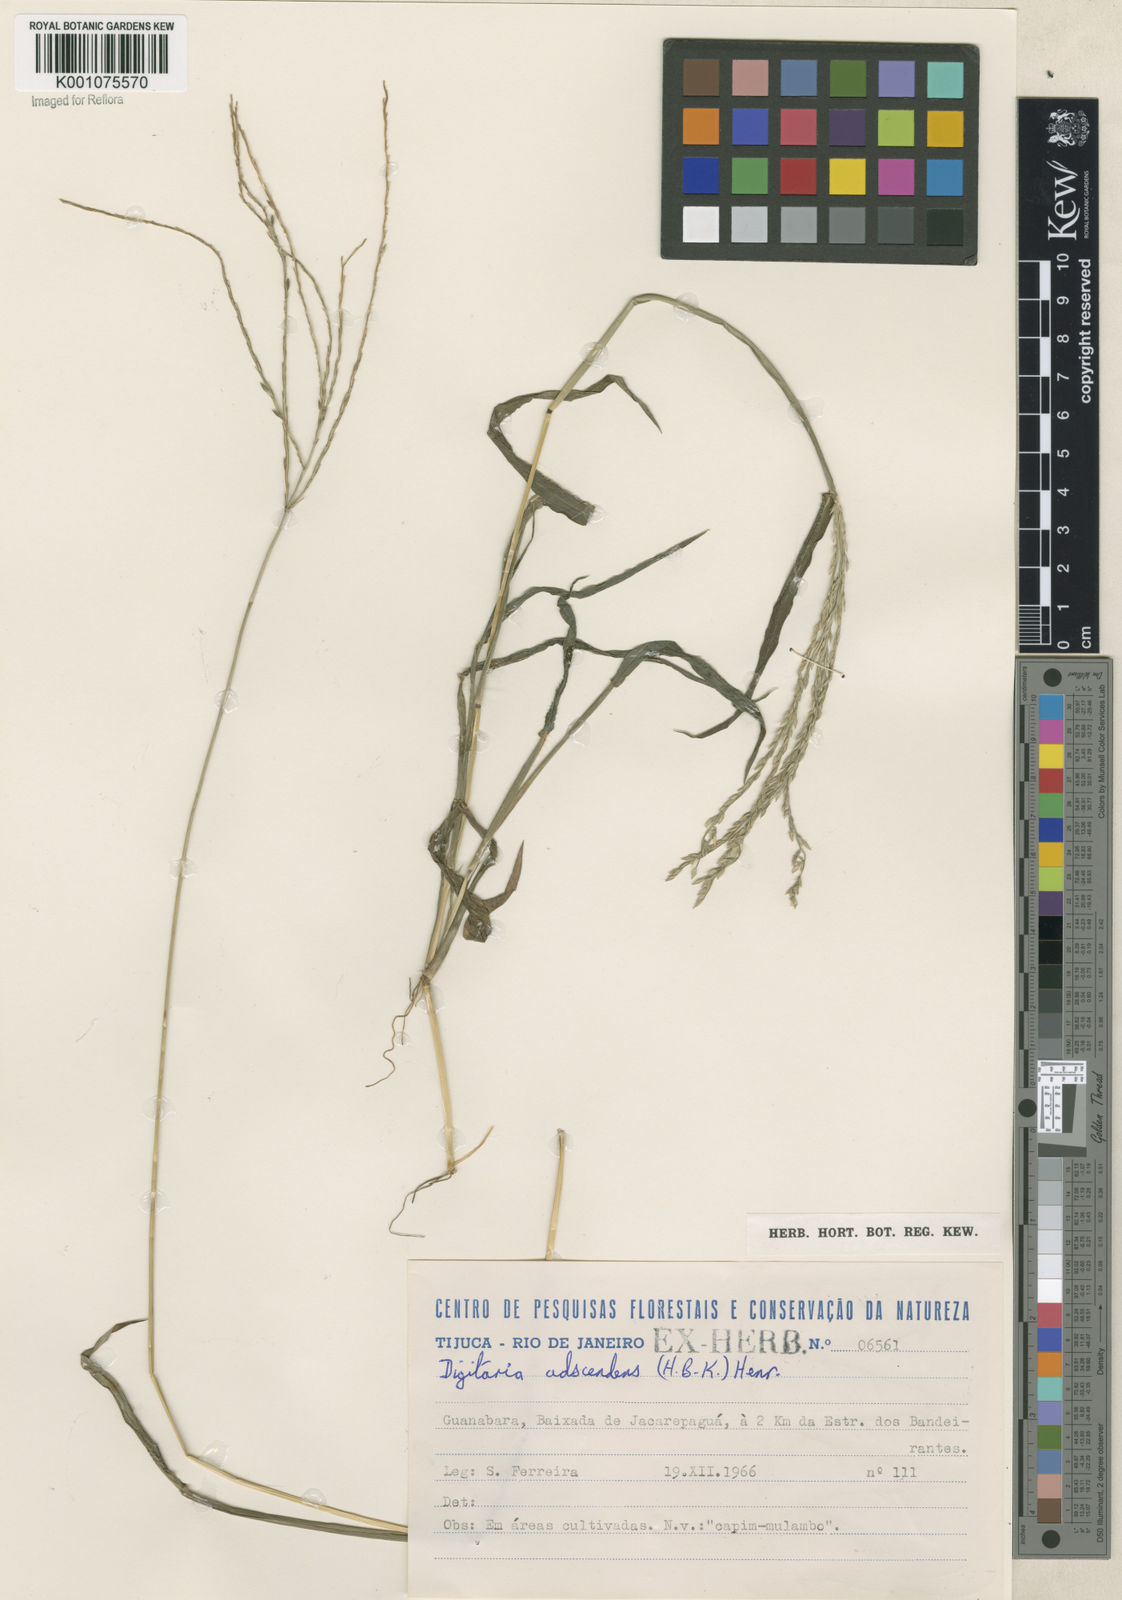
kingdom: Plantae
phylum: Tracheophyta
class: Liliopsida
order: Poales
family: Poaceae
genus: Digitaria
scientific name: Digitaria ciliaris
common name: Tropical finger-grass
